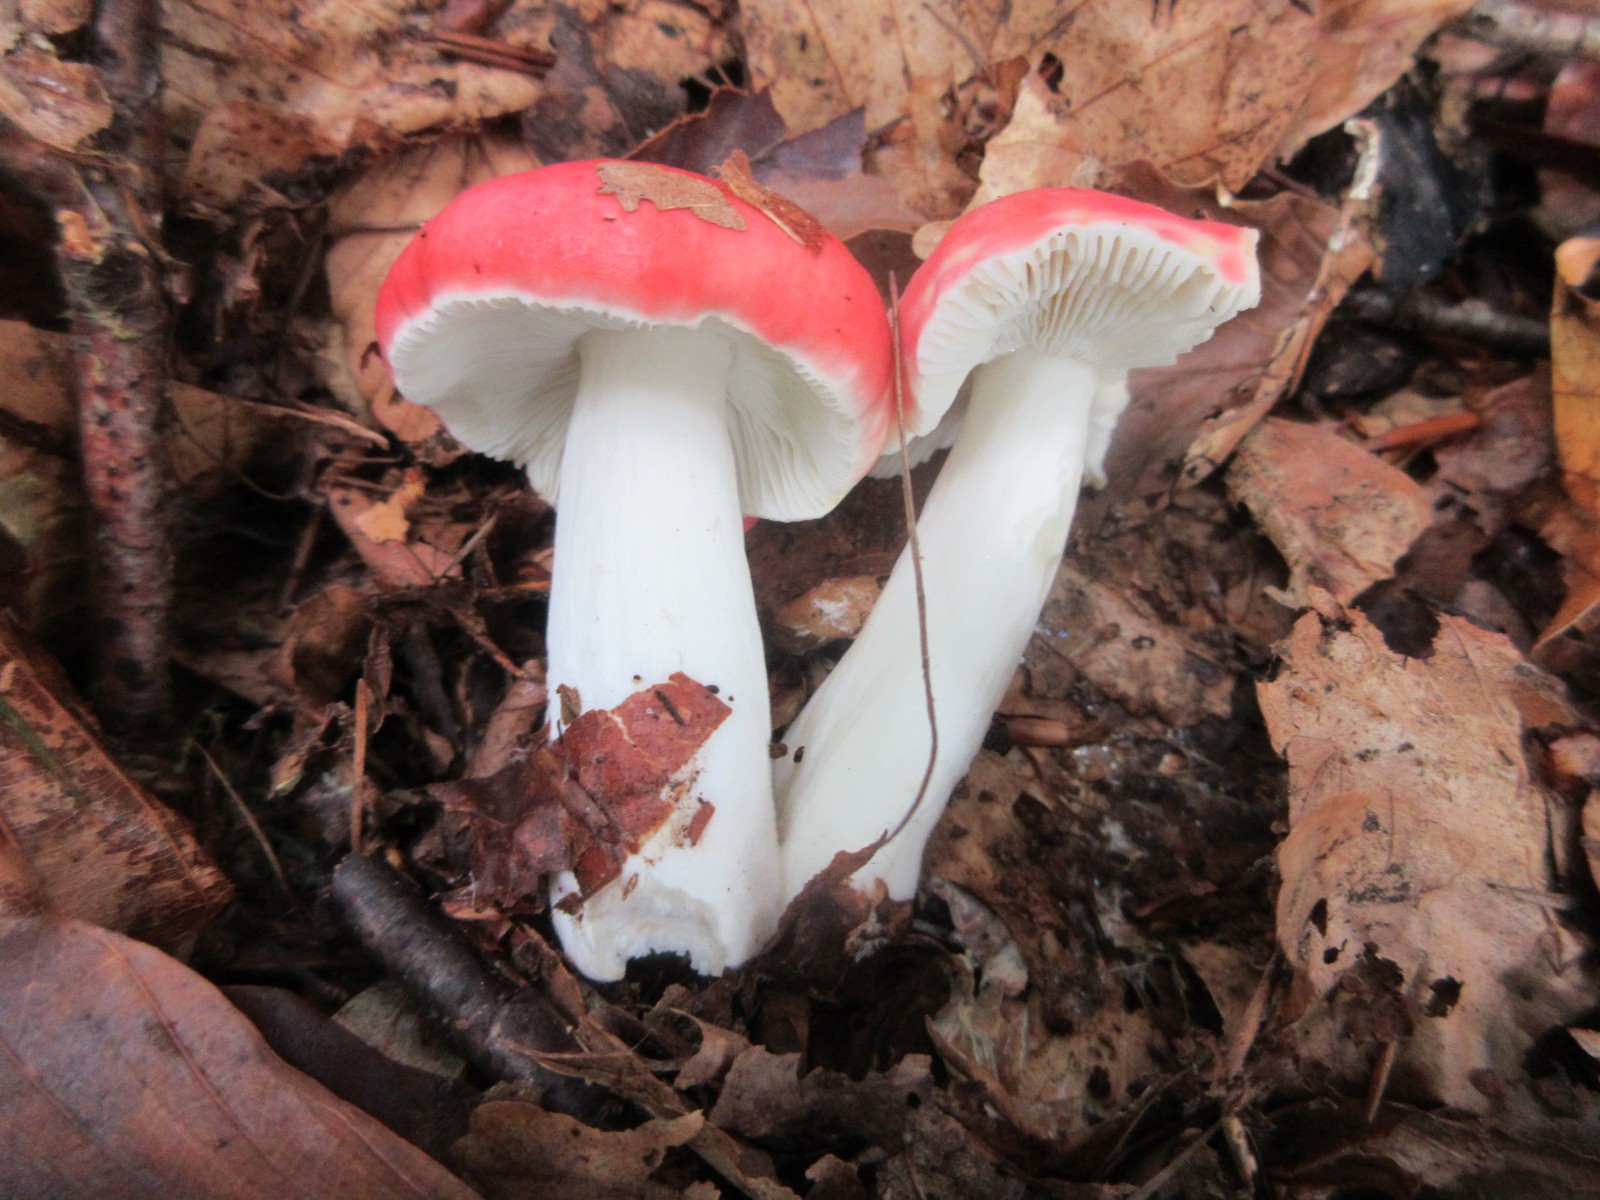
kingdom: Fungi
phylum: Basidiomycota
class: Agaricomycetes
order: Russulales
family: Russulaceae
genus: Russula
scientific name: Russula nobilis
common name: lille gift-skørhat
